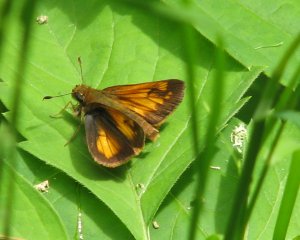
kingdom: Animalia
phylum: Arthropoda
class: Insecta
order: Lepidoptera
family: Hesperiidae
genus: Lon
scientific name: Lon hobomok
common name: Hobomok Skipper
